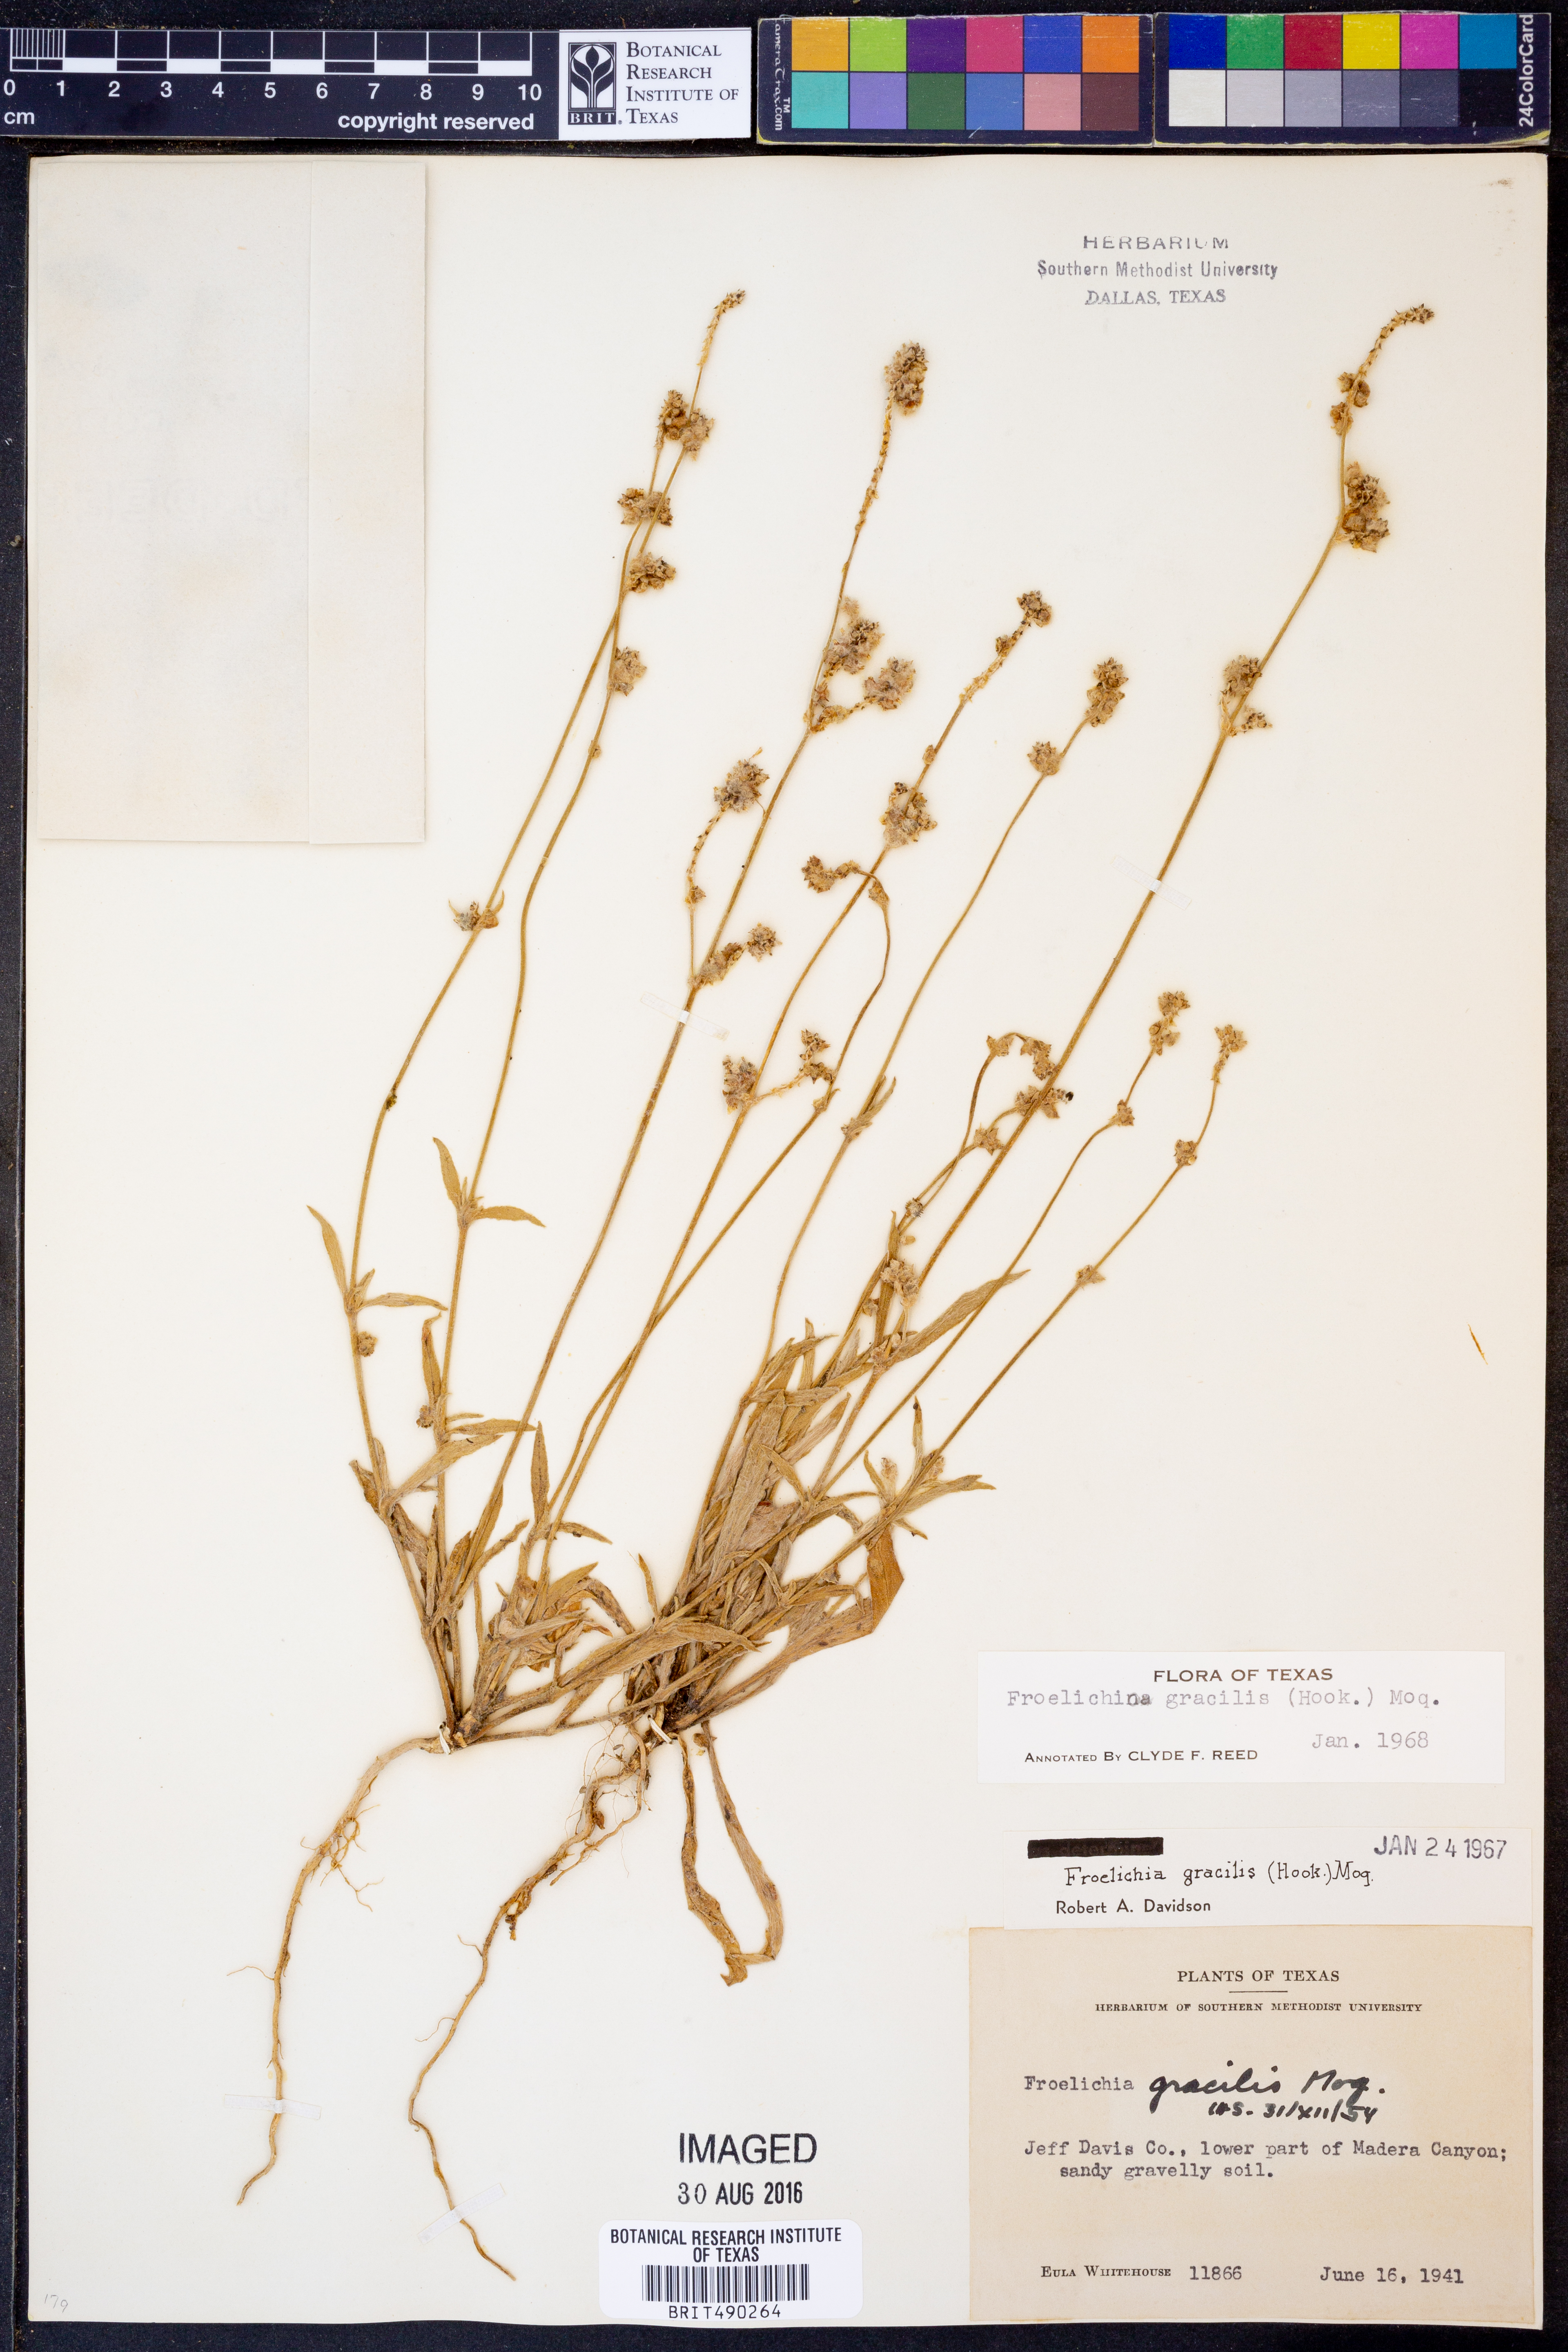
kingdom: Plantae
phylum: Tracheophyta
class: Magnoliopsida
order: Caryophyllales
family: Amaranthaceae
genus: Froelichia
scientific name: Froelichia gracilis
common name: Slender cottonweed
